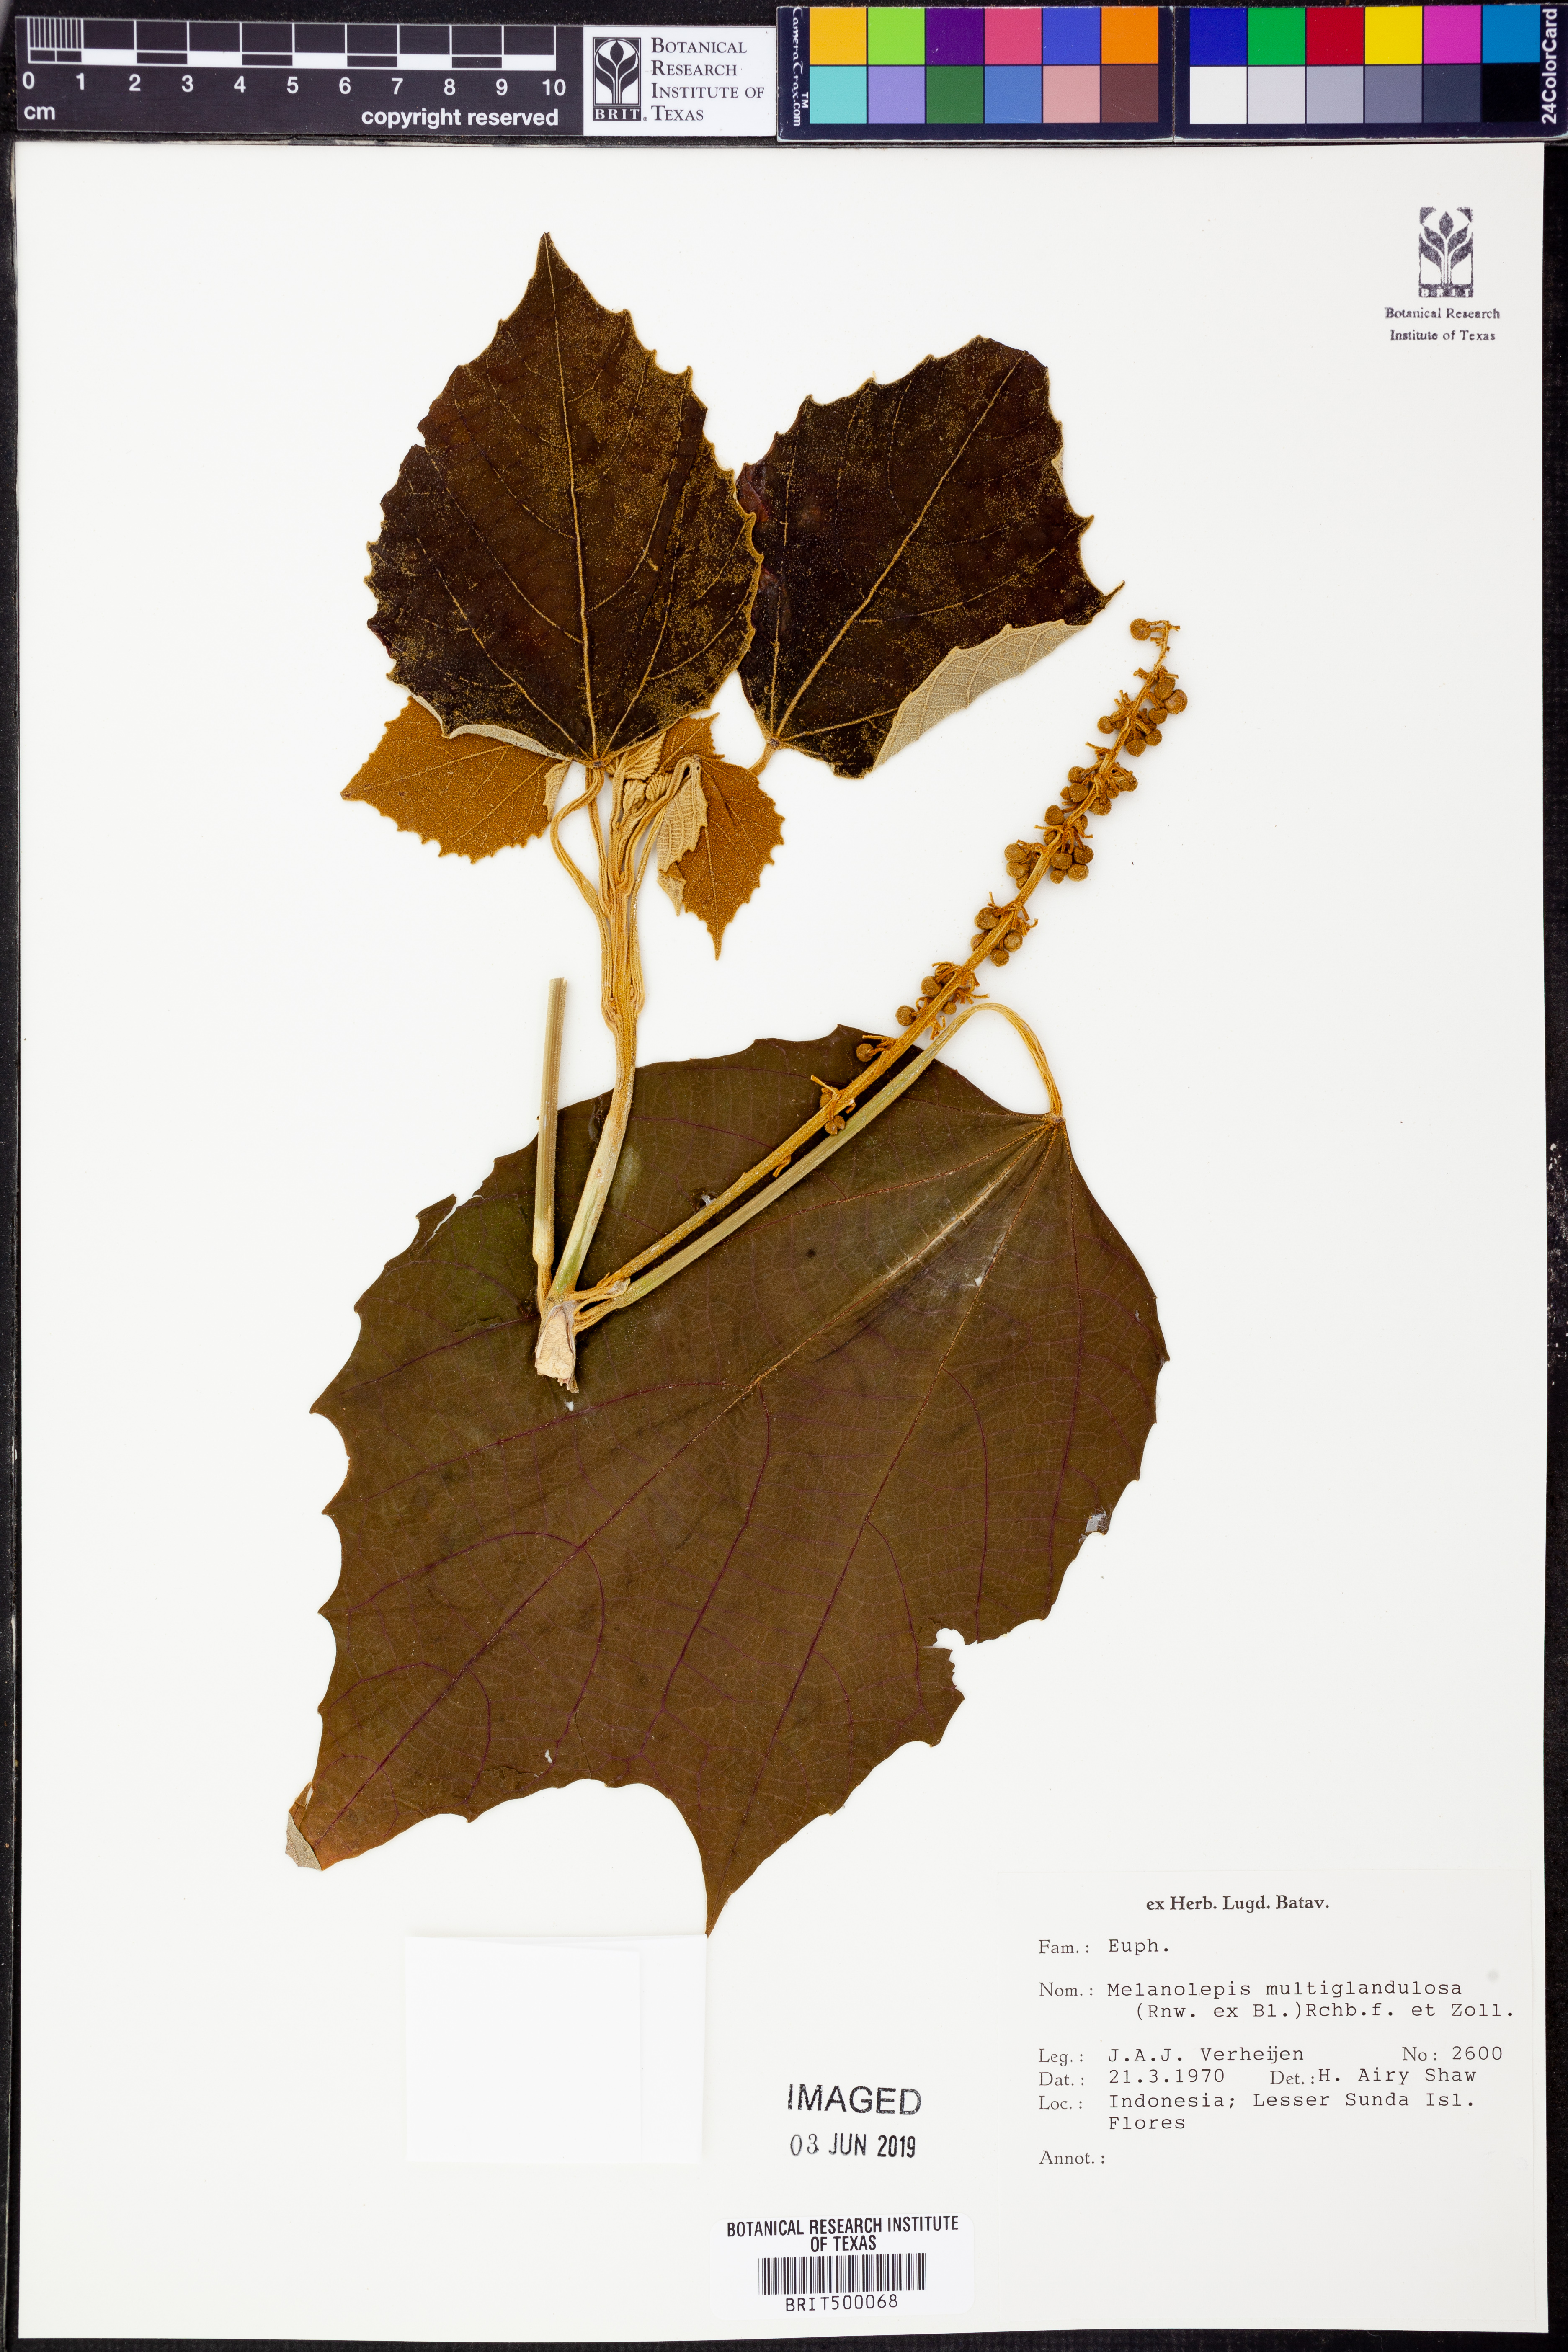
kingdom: Plantae
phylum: Tracheophyta
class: Magnoliopsida
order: Malpighiales
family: Euphorbiaceae
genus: Melanolepis
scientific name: Melanolepis multiglandulosa
